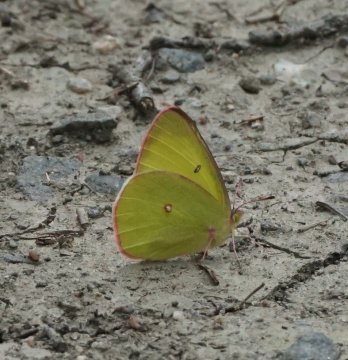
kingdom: Animalia
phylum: Arthropoda
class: Insecta
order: Lepidoptera
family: Pieridae
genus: Colias
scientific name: Colias interior
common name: Pink-edged Sulphur
